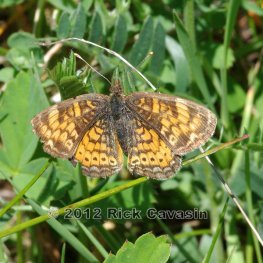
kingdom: Animalia
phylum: Arthropoda
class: Insecta
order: Lepidoptera
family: Nymphalidae
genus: Phyciodes
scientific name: Phyciodes tharos
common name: Northern Crescent
